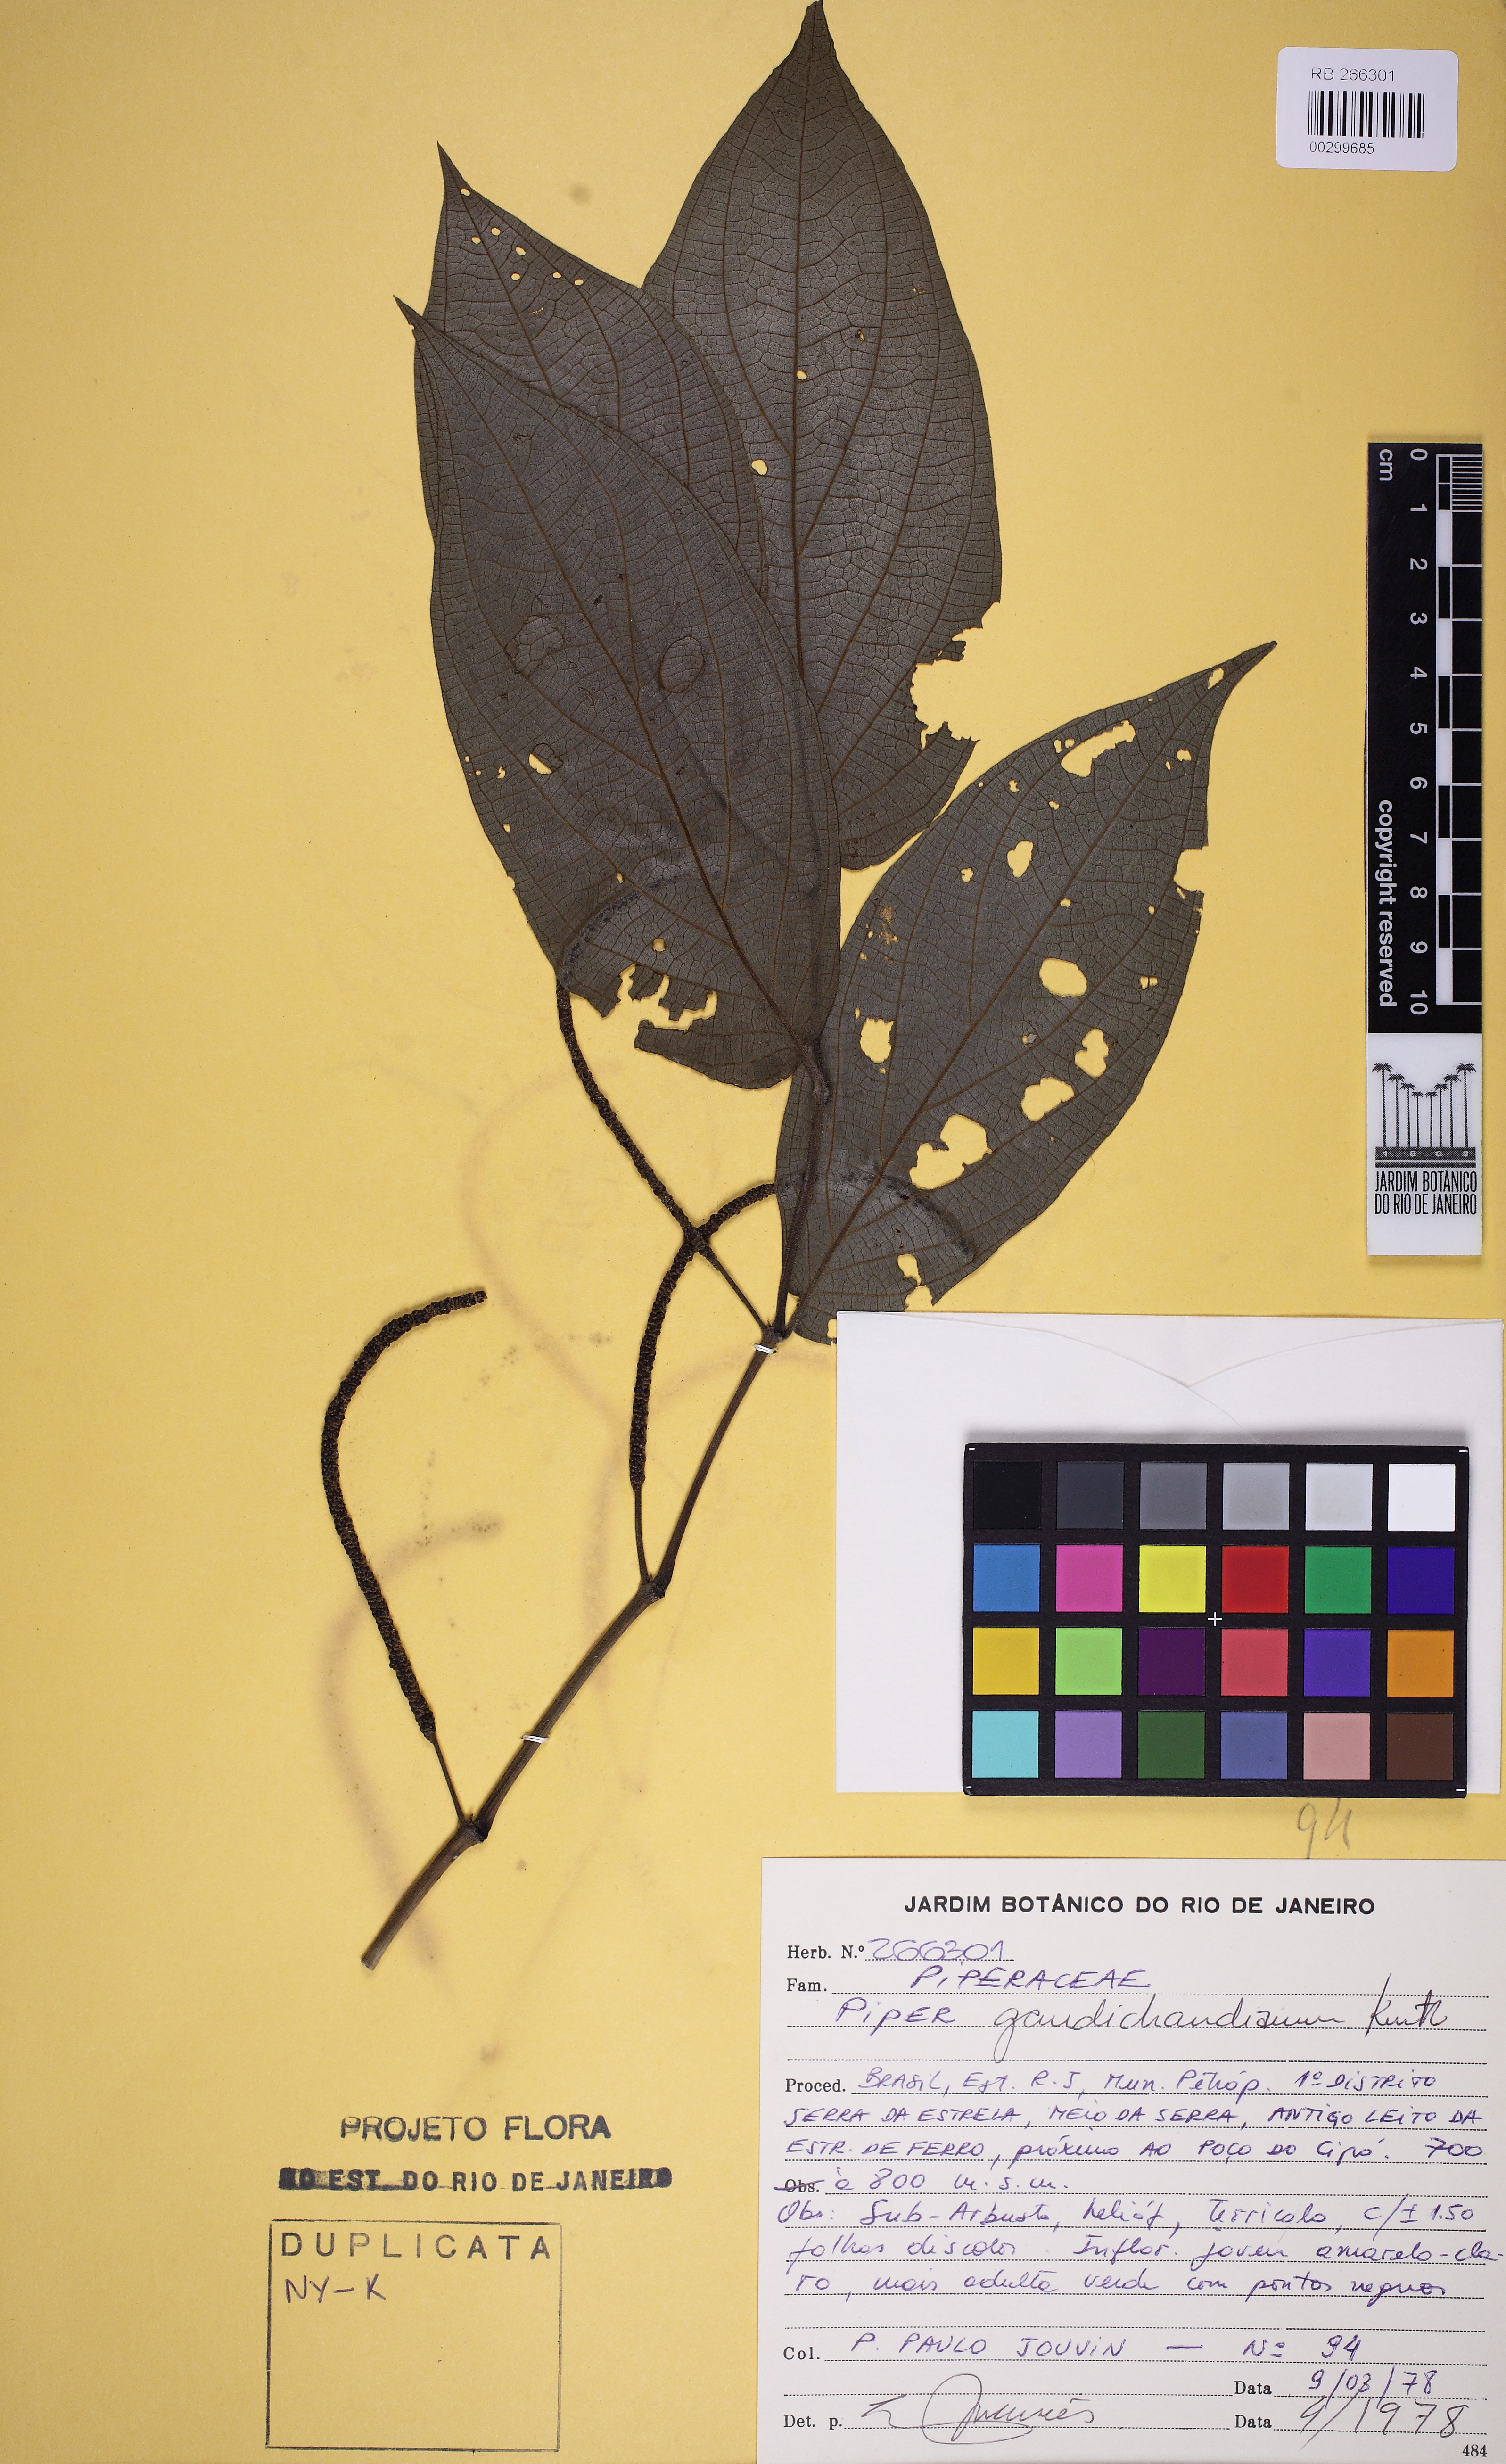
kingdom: Plantae
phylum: Tracheophyta
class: Magnoliopsida
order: Piperales
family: Piperaceae
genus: Piper
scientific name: Piper gaudichaudianum
